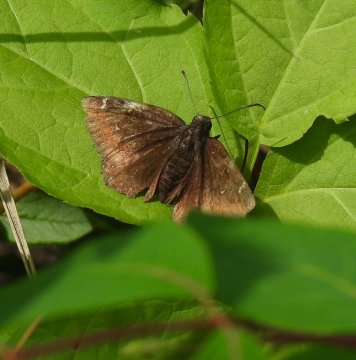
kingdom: Animalia
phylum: Arthropoda
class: Insecta
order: Lepidoptera
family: Hesperiidae
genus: Autochton
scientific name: Autochton
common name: Northern Cloudywing
